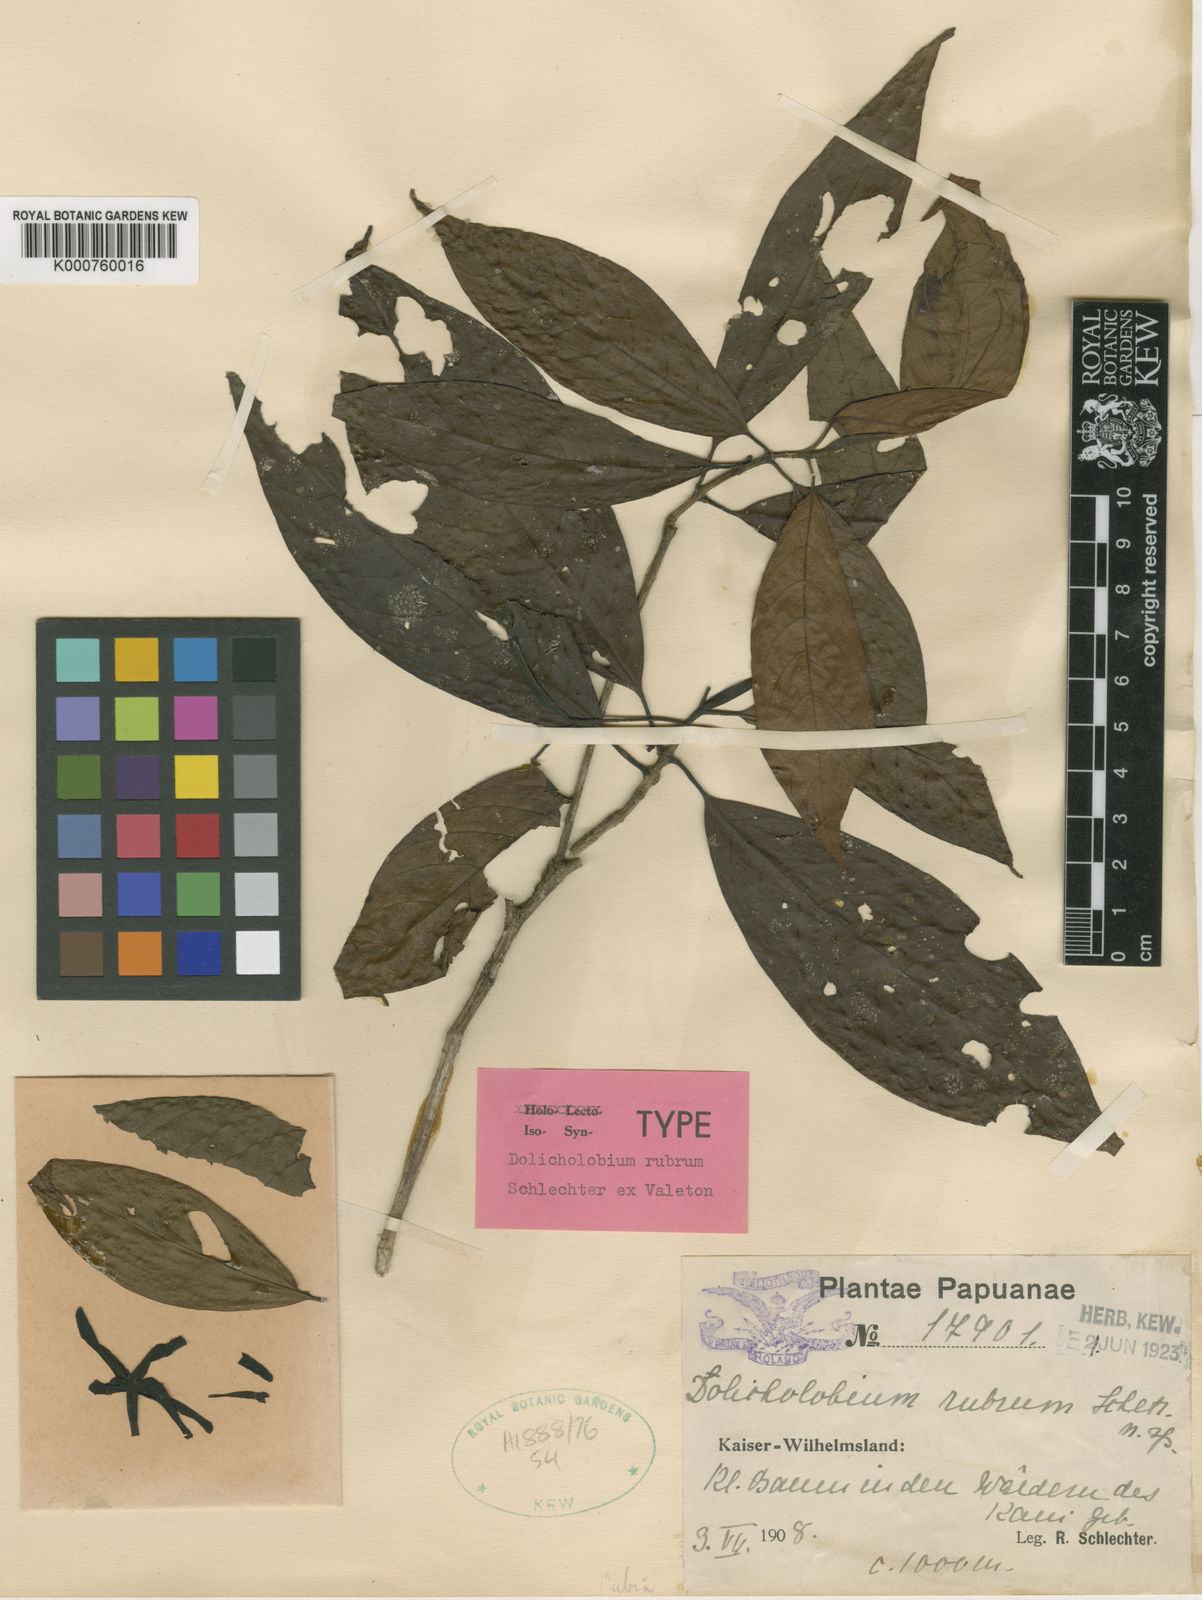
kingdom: Plantae
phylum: Tracheophyta
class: Magnoliopsida
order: Gentianales
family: Rubiaceae
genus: Dolicholobium
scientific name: Dolicholobium rubrum
